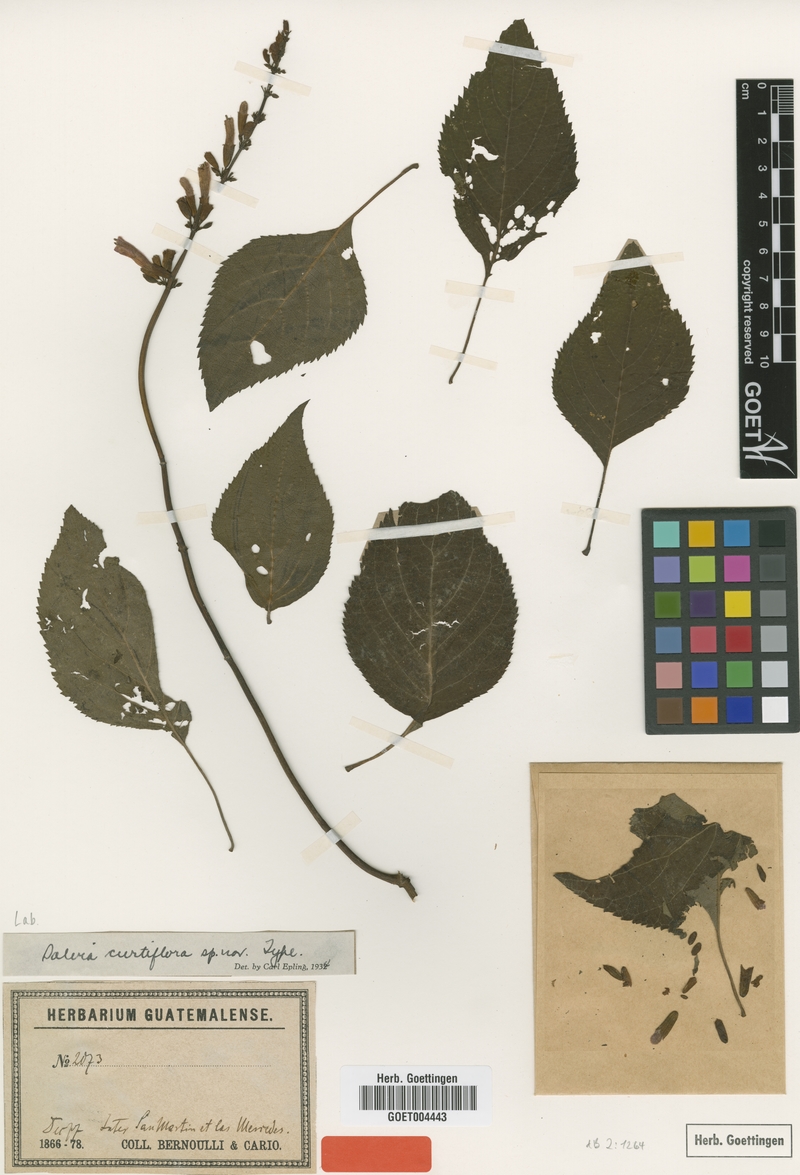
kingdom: Plantae
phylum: Tracheophyta
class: Magnoliopsida
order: Lamiales
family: Lamiaceae
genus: Salvia
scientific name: Salvia nervata
